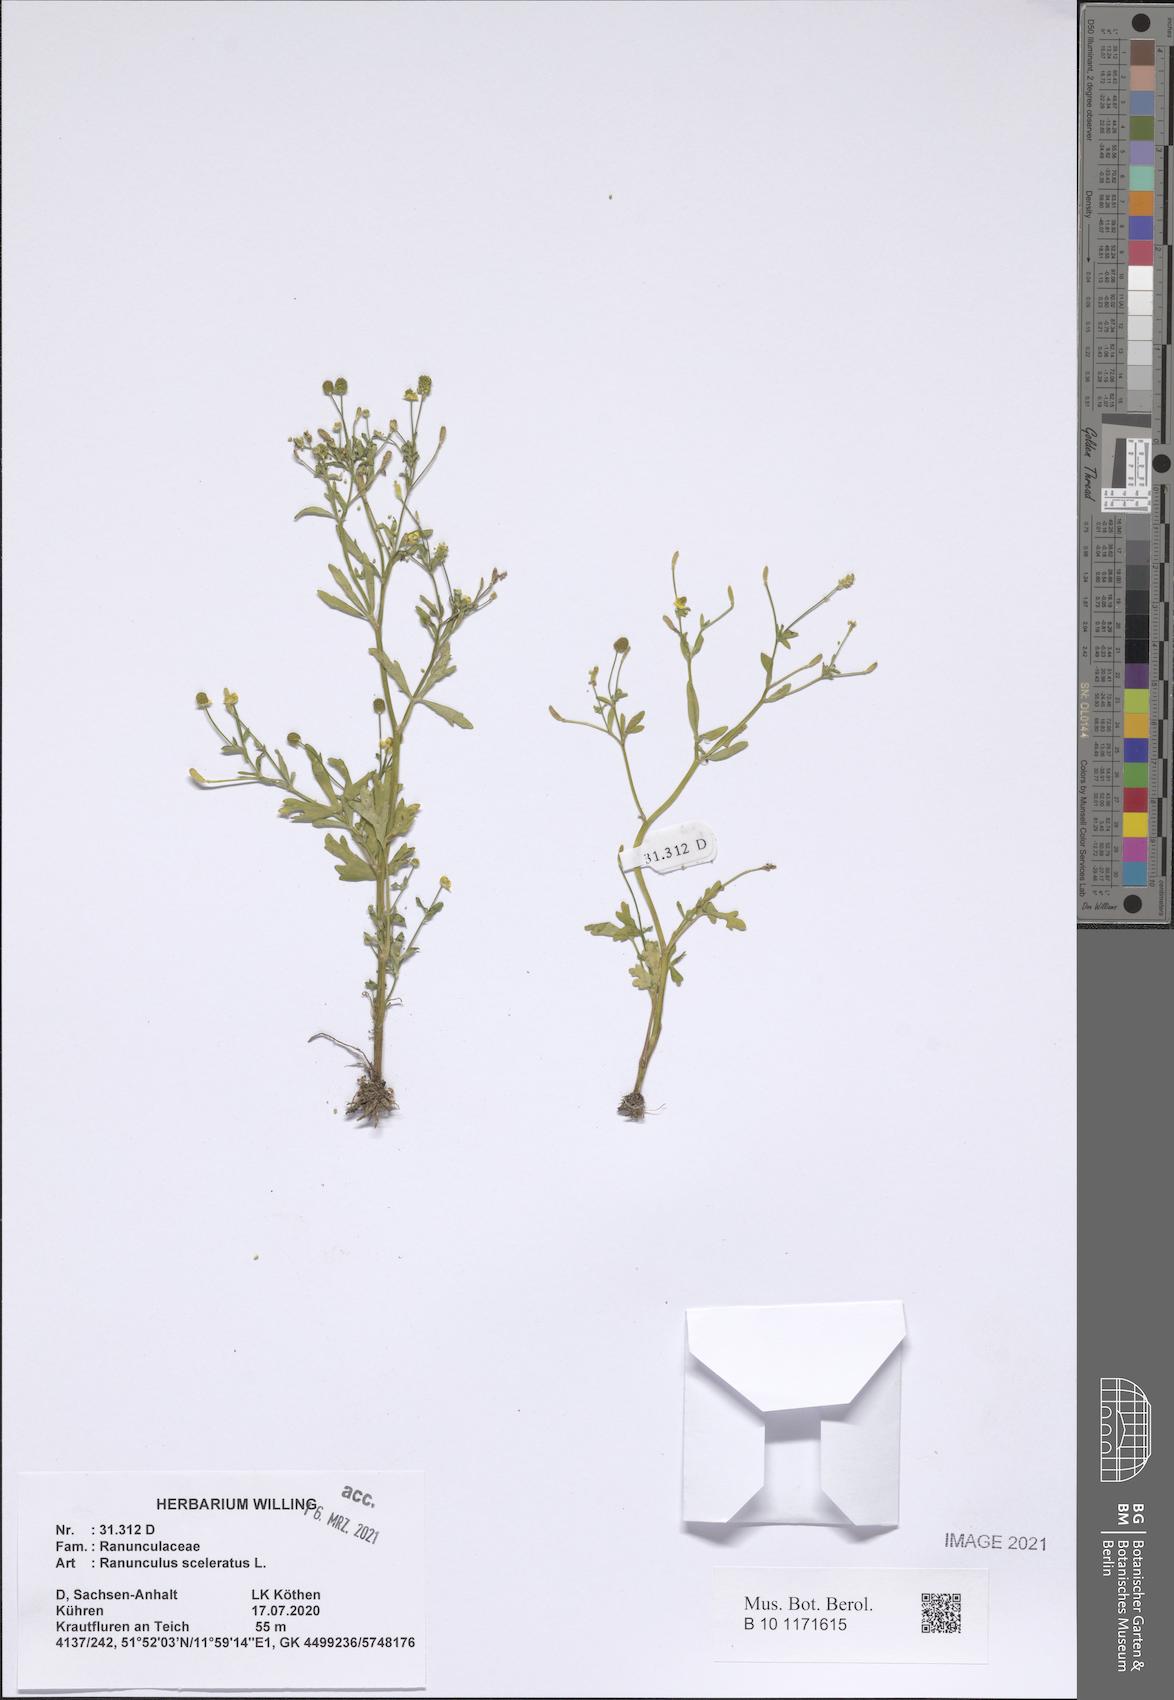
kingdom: Plantae
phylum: Tracheophyta
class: Magnoliopsida
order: Ranunculales
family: Ranunculaceae
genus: Ranunculus
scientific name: Ranunculus sceleratus
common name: Celery-leaved buttercup
